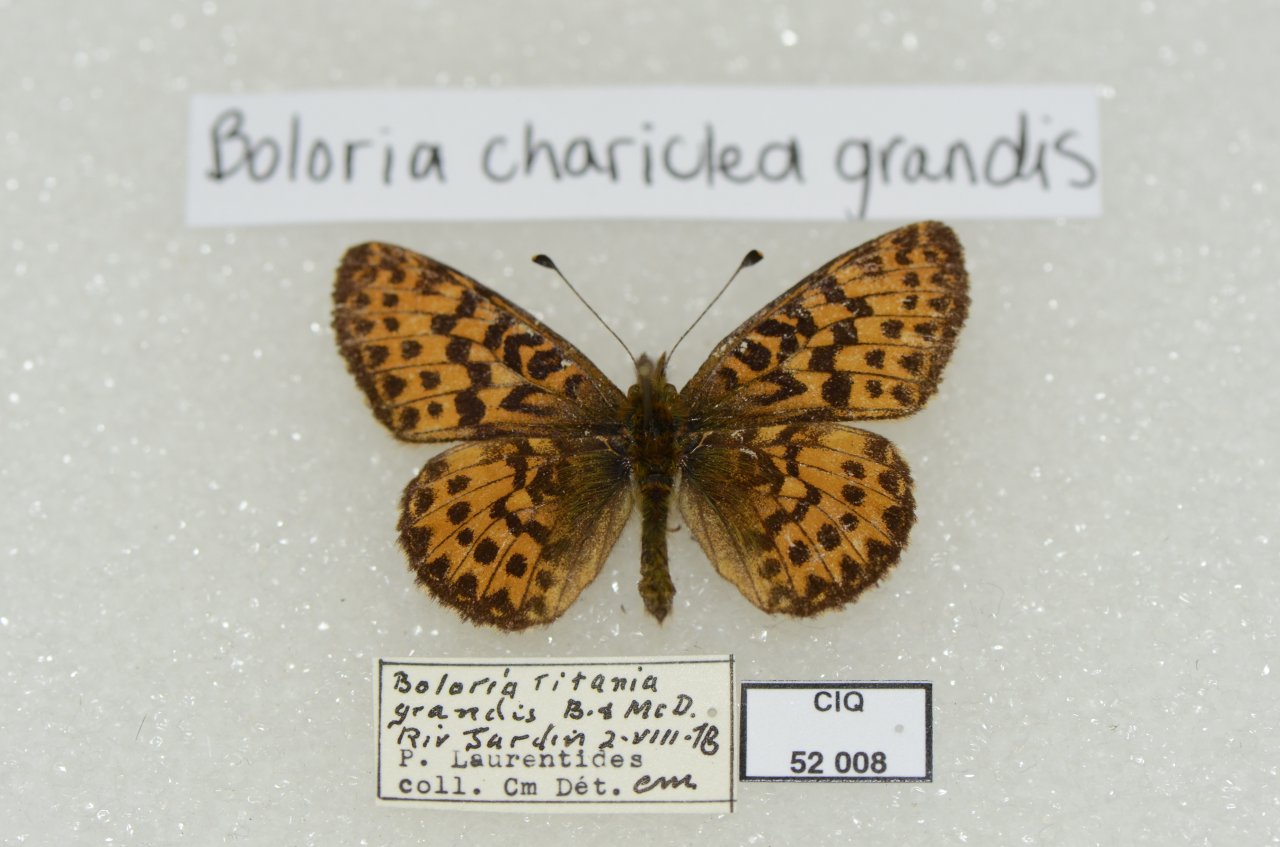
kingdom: Animalia
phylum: Arthropoda
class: Insecta
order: Lepidoptera
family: Nymphalidae
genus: Boloria
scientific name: Boloria chariclea
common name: Arctic Fritillary
